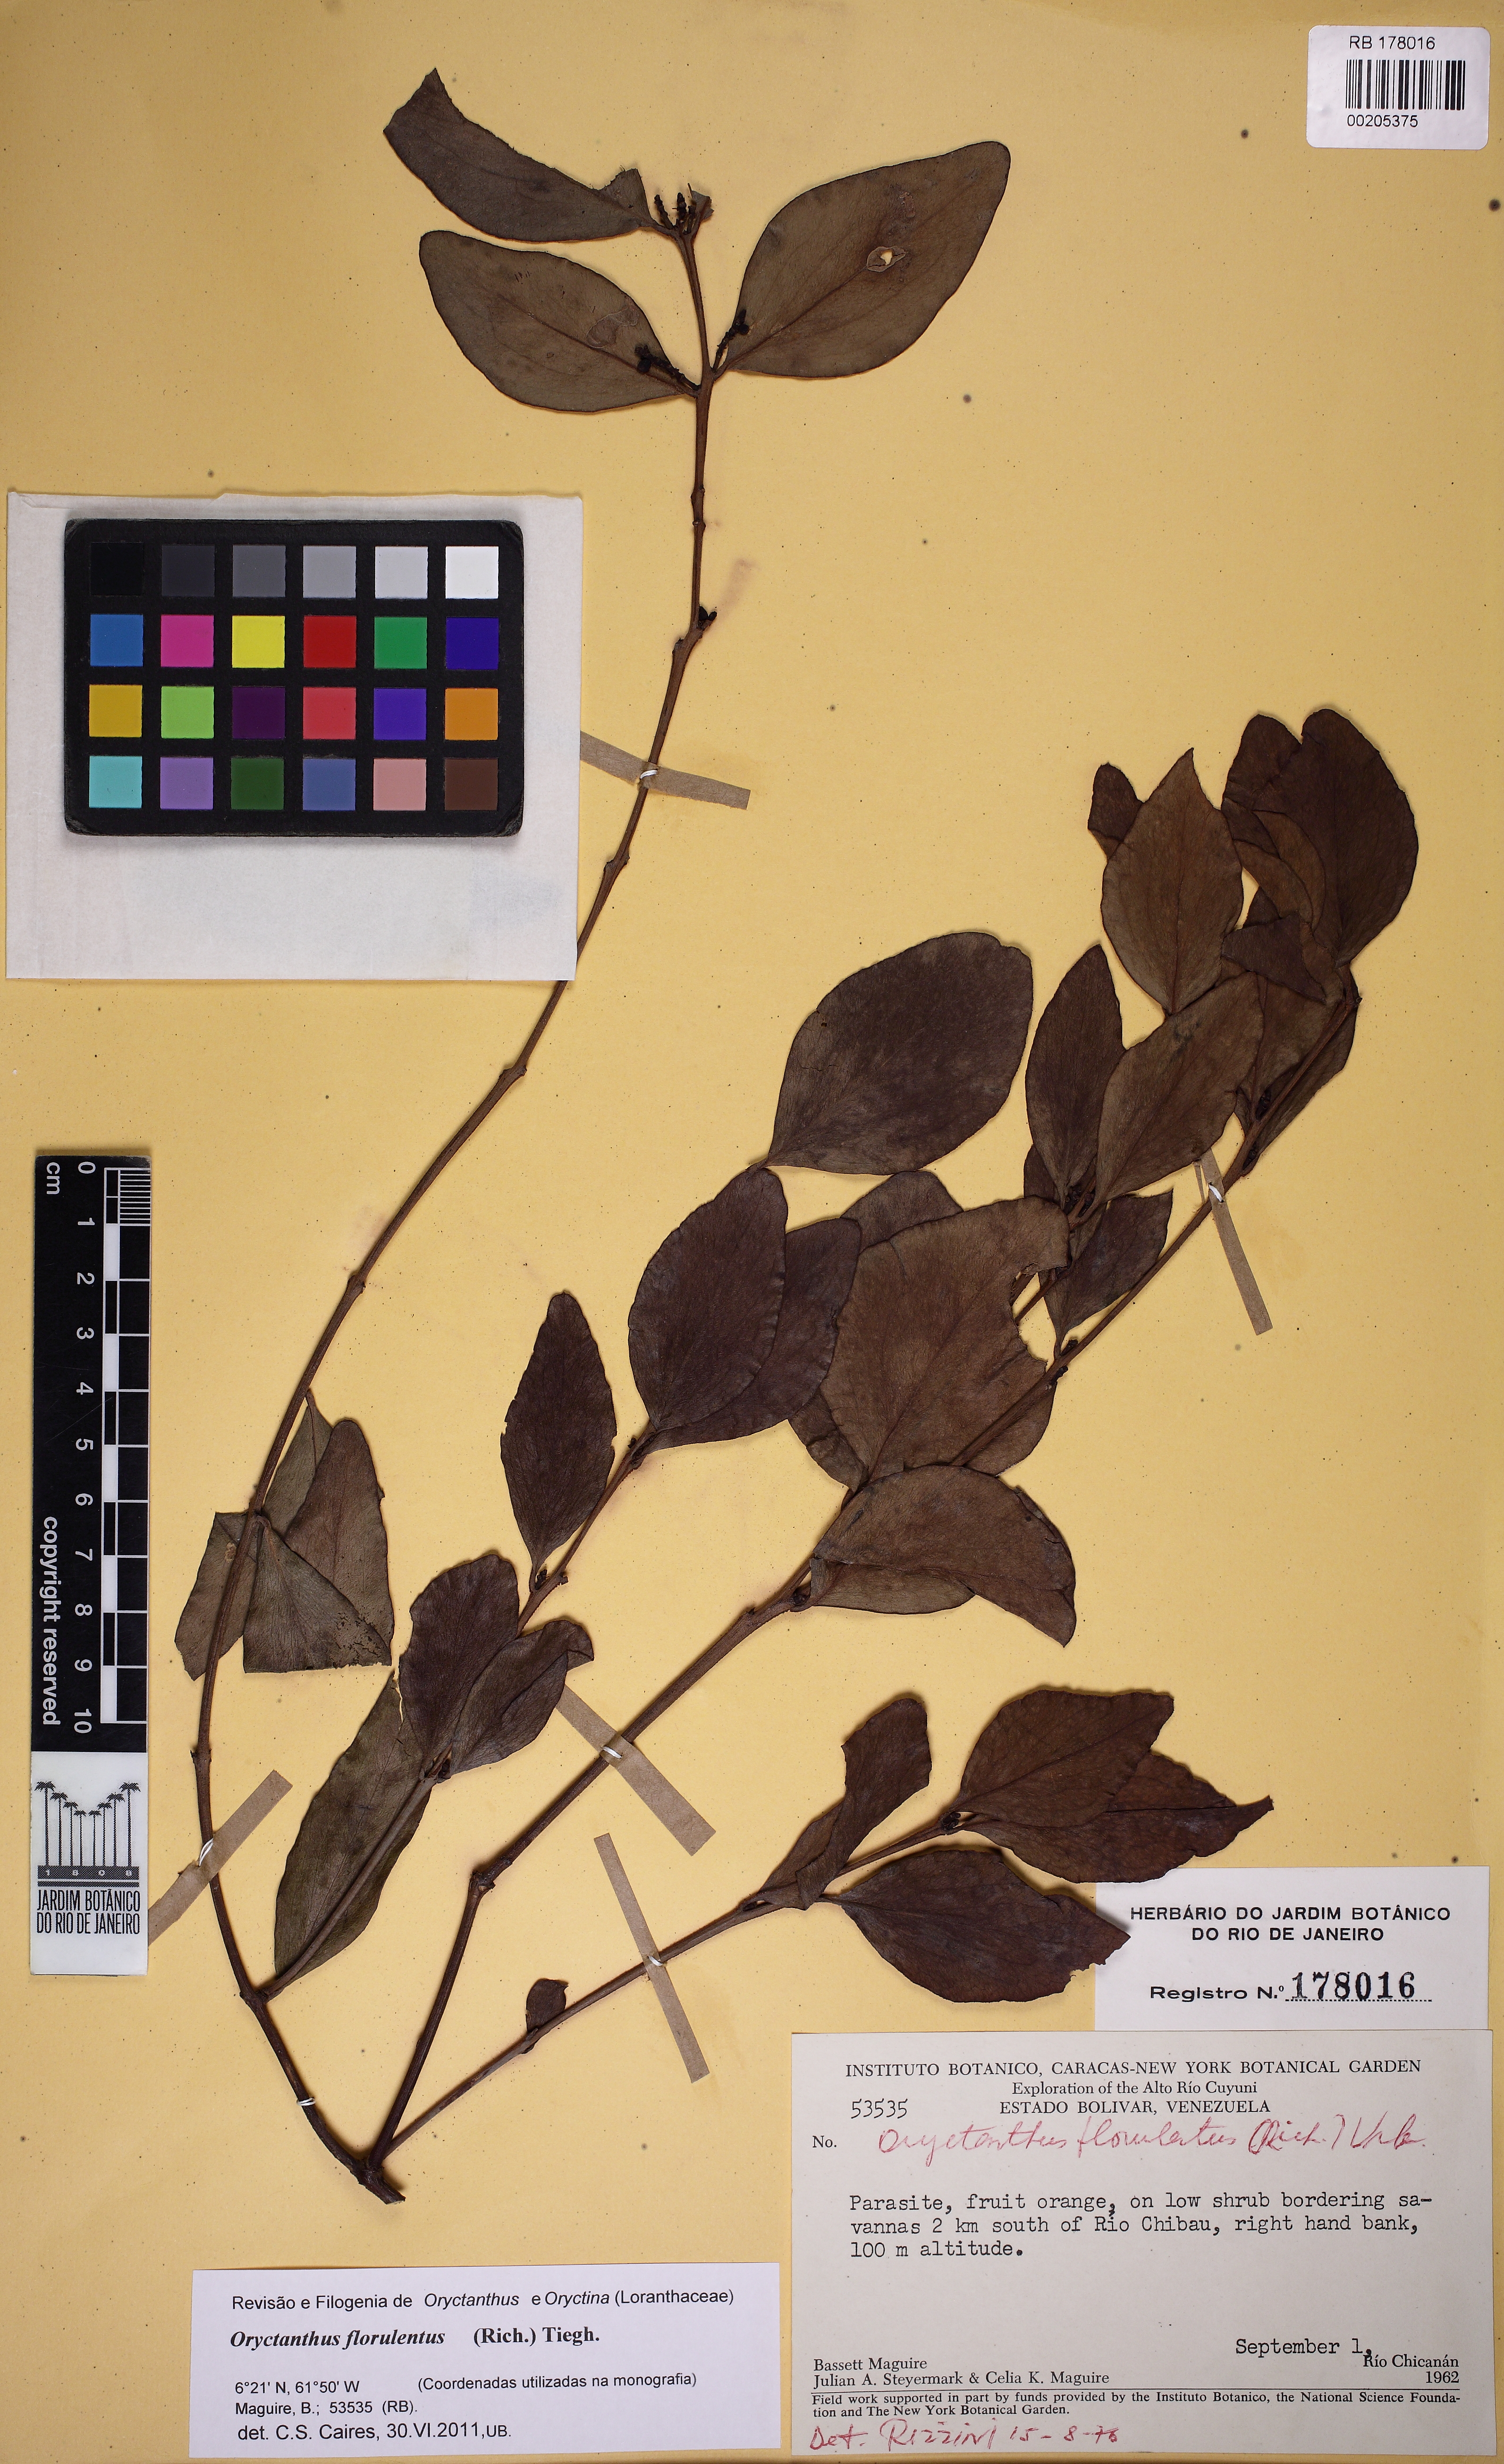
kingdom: Plantae
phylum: Tracheophyta
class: Magnoliopsida
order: Santalales
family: Loranthaceae
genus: Oryctanthus
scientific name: Oryctanthus florulentus
